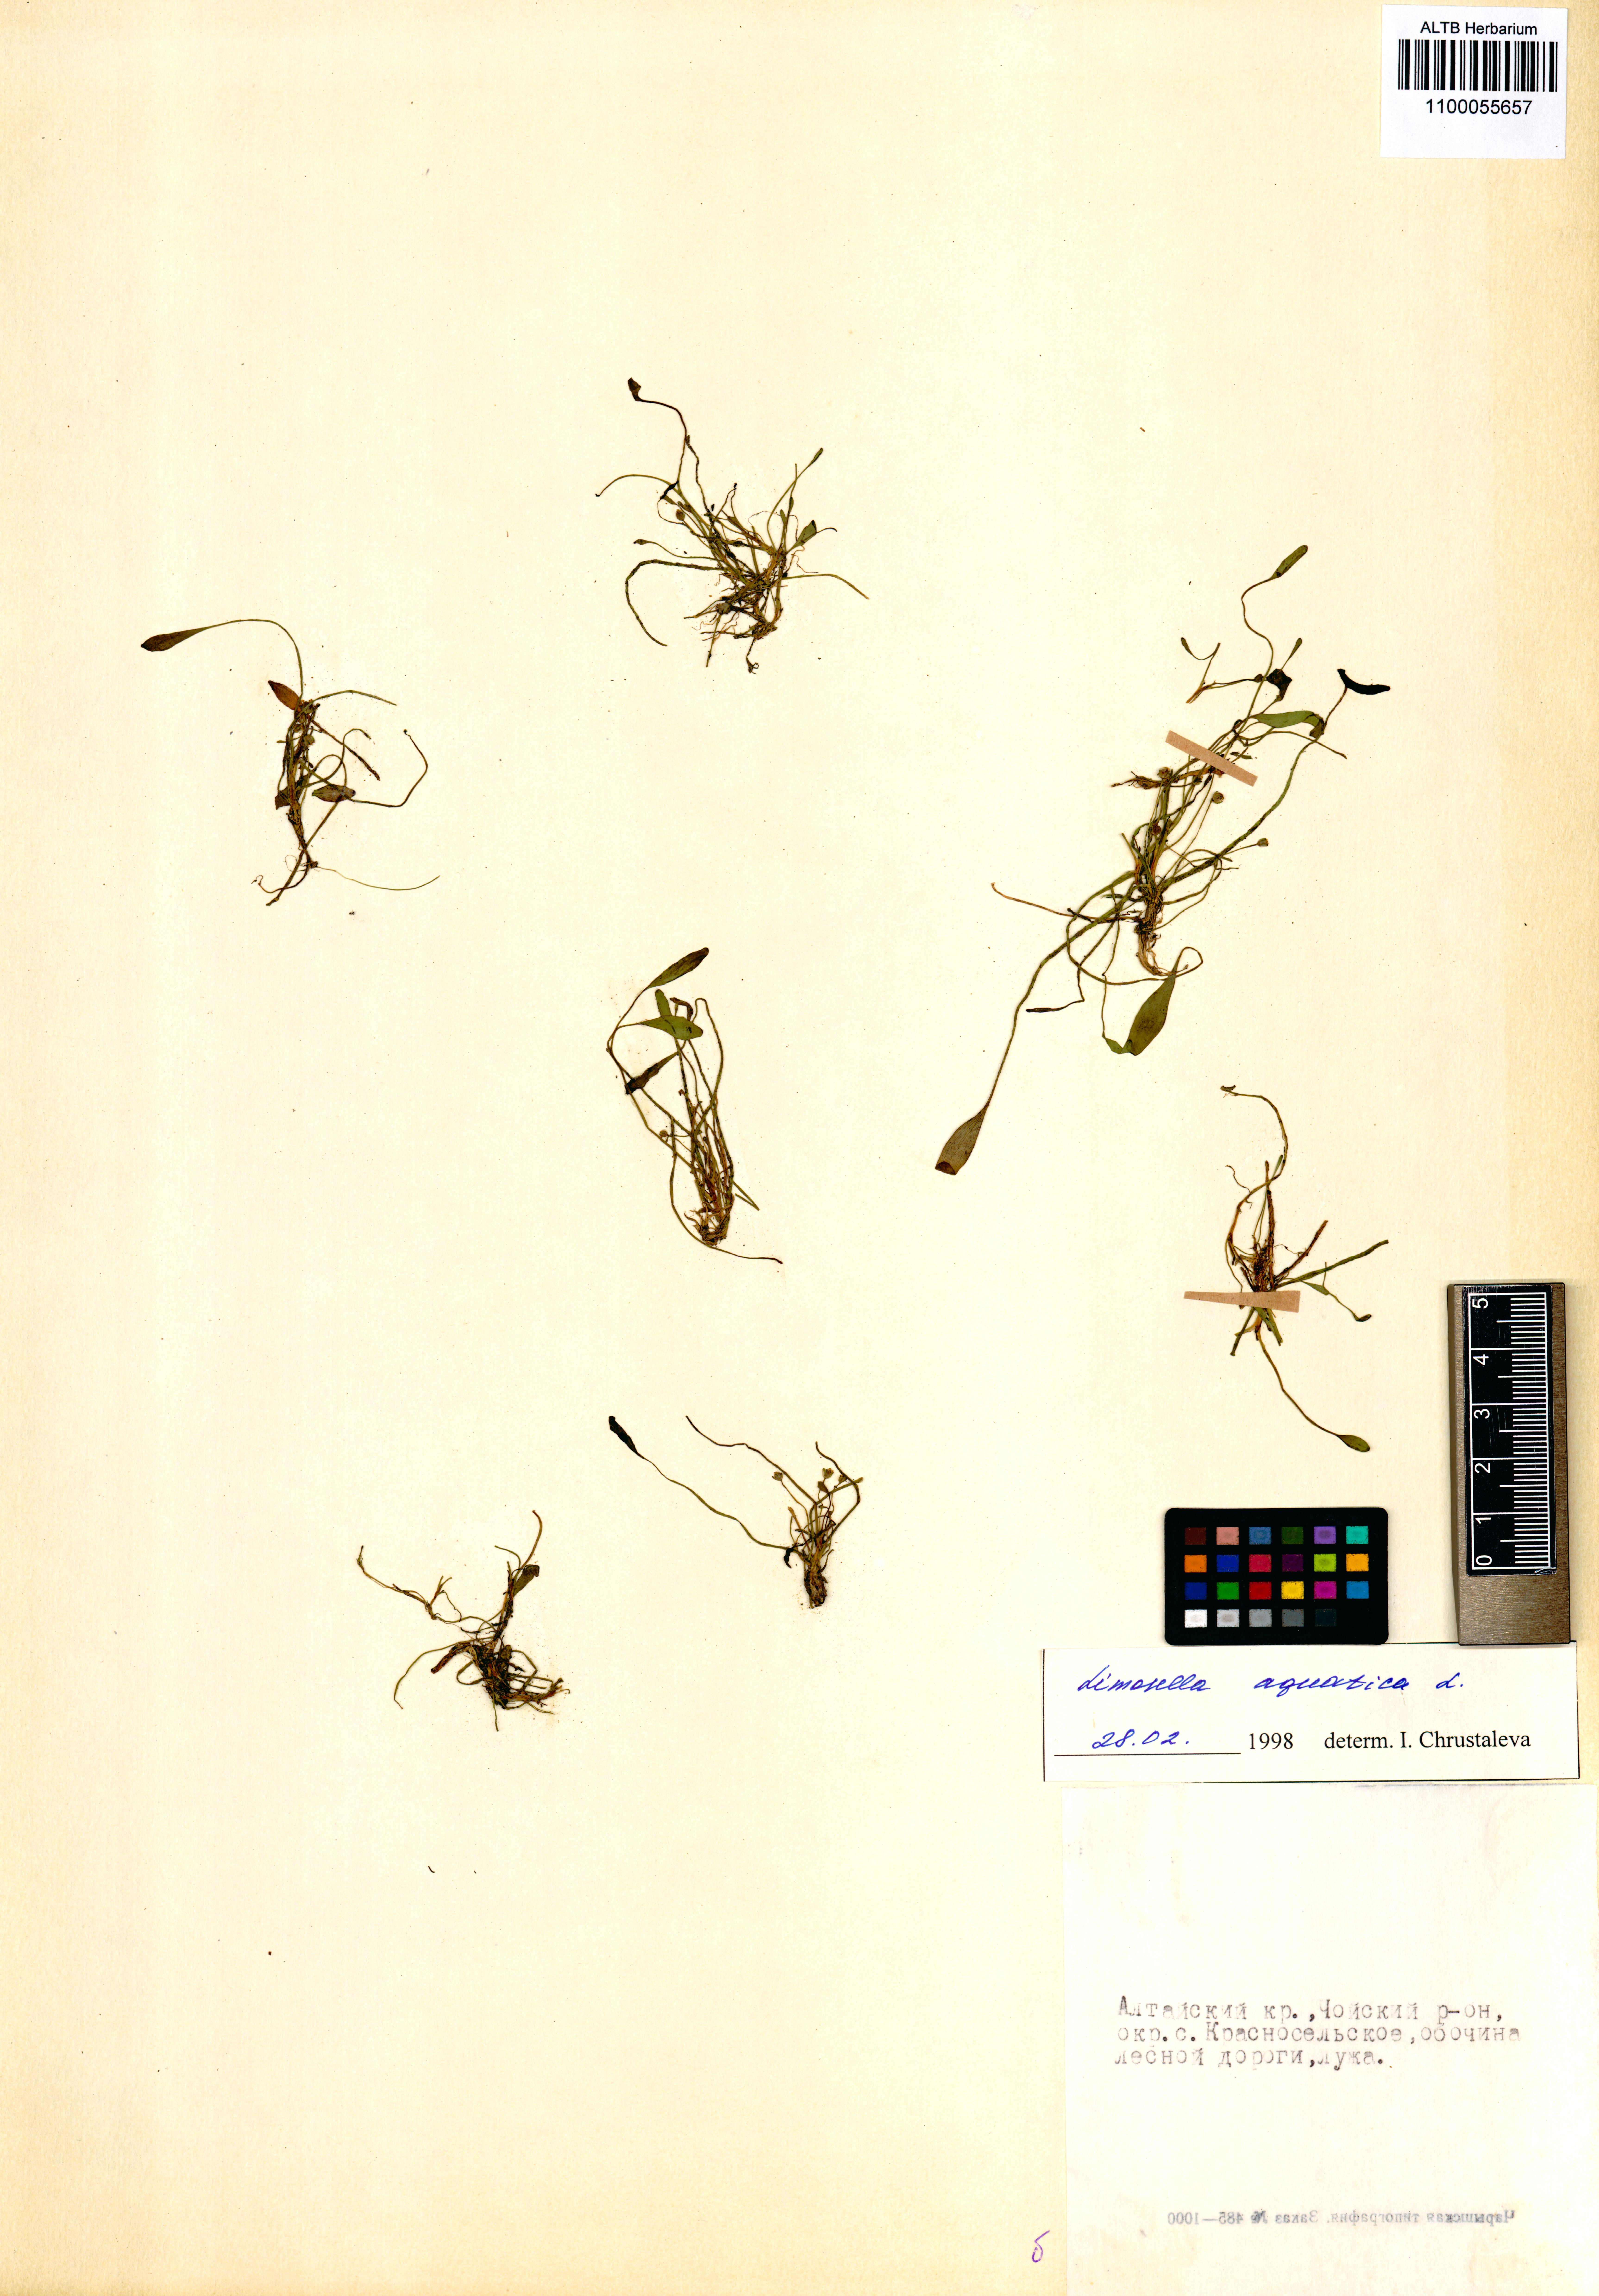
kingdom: Plantae
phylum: Tracheophyta
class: Magnoliopsida
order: Lamiales
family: Scrophulariaceae
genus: Limosella
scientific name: Limosella aquatica
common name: Mudwort
